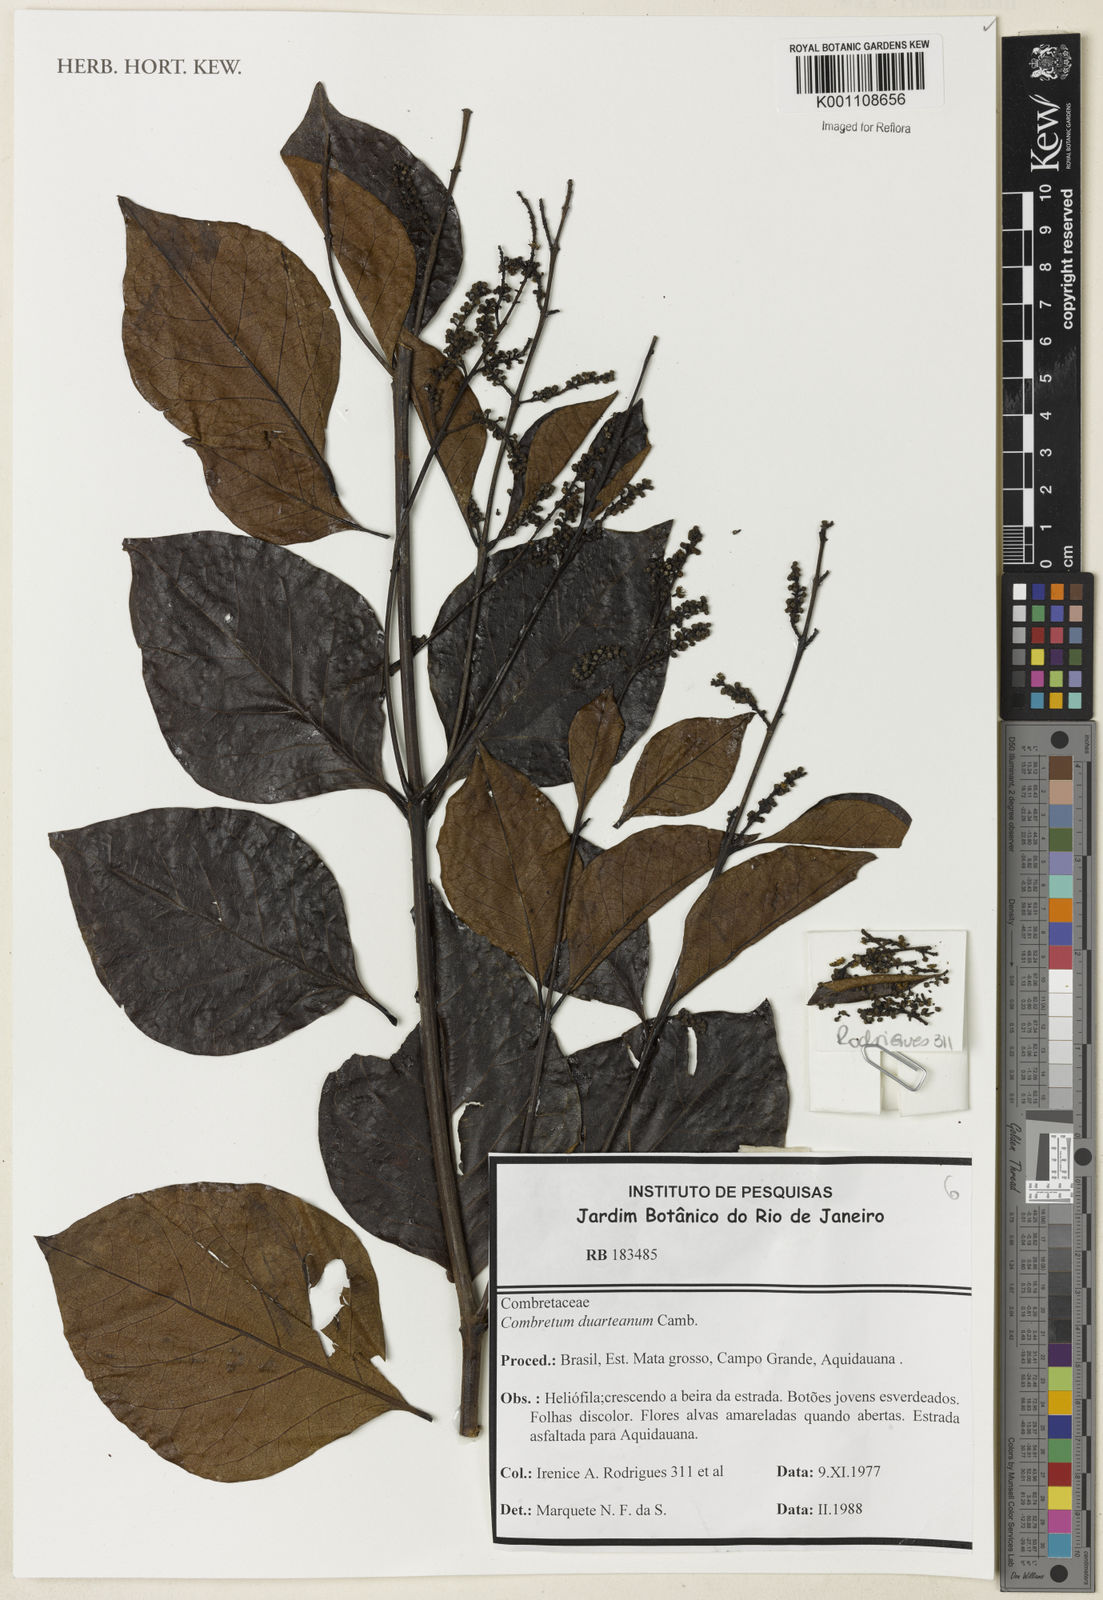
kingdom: Plantae
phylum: Tracheophyta
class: Magnoliopsida
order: Myrtales
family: Combretaceae
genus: Combretum
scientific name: Combretum duarteanum
